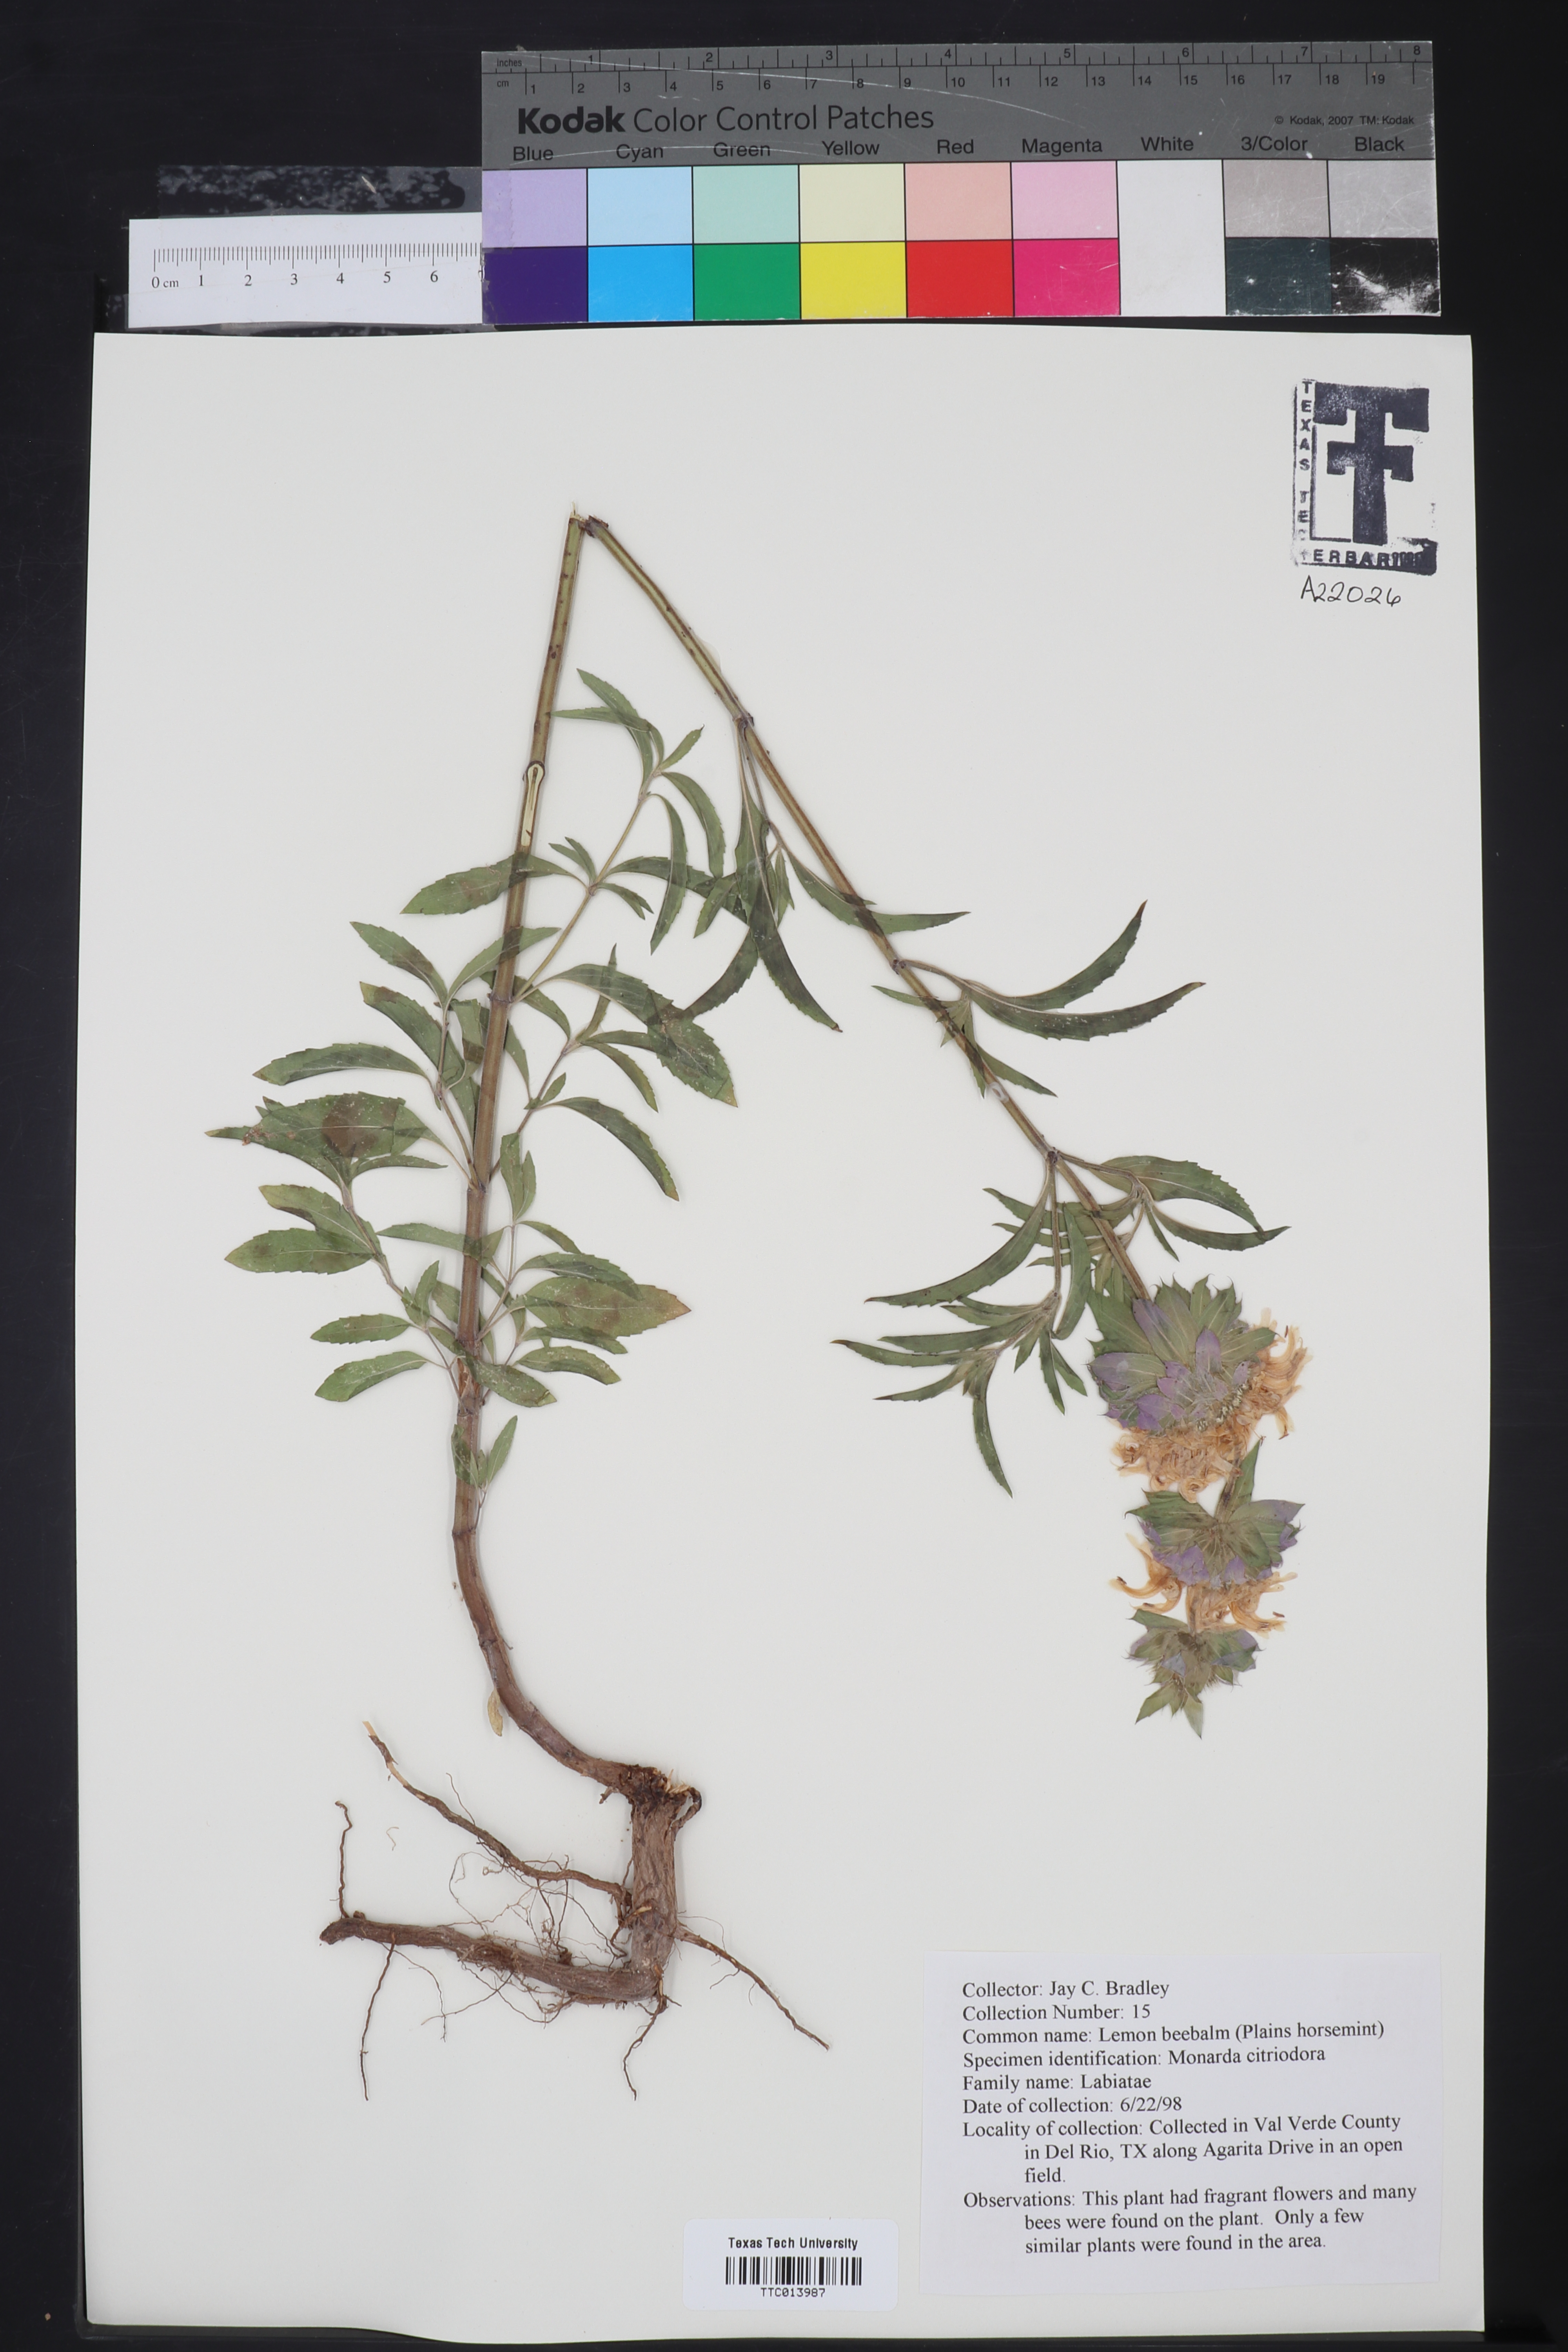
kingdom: Plantae
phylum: Tracheophyta
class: Magnoliopsida
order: Lamiales
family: Lamiaceae
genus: Monarda
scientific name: Monarda citriodora
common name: Lemon beebalm
